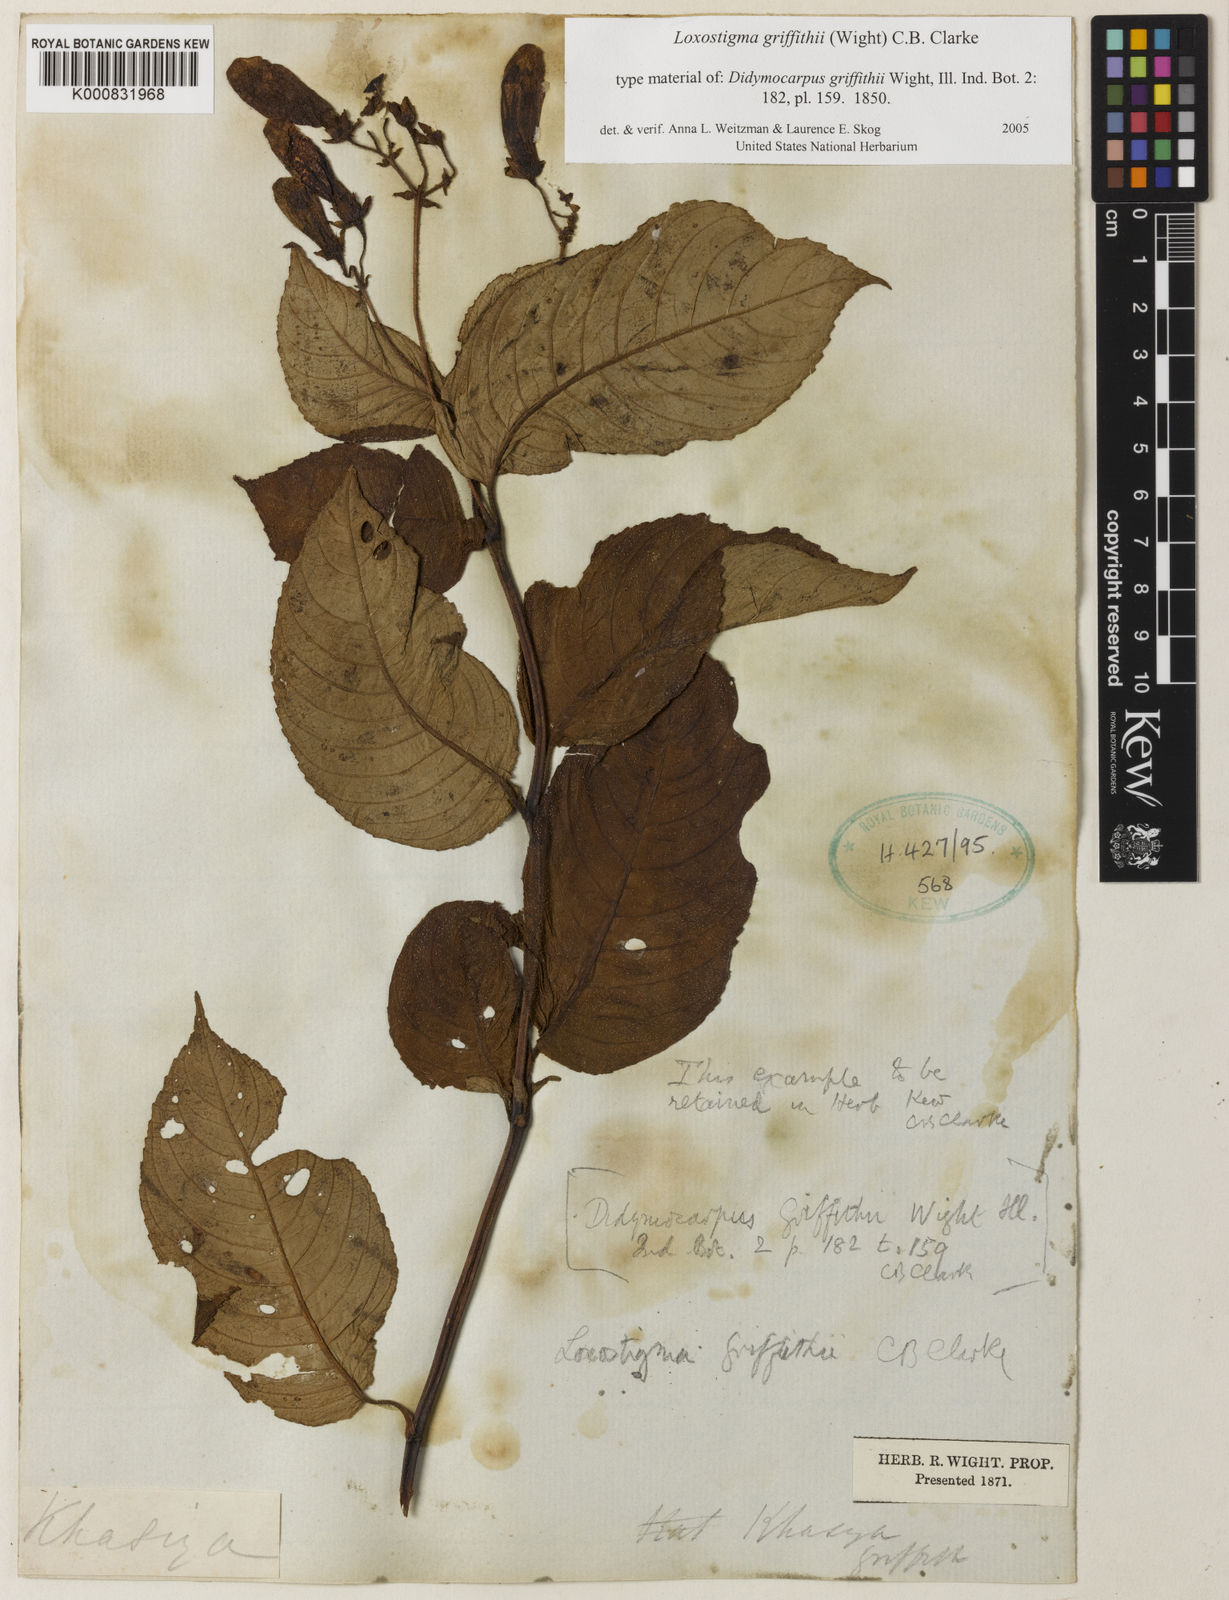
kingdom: Plantae
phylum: Tracheophyta
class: Magnoliopsida
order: Lamiales
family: Gesneriaceae
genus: Loxostigma
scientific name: Loxostigma griffithii
